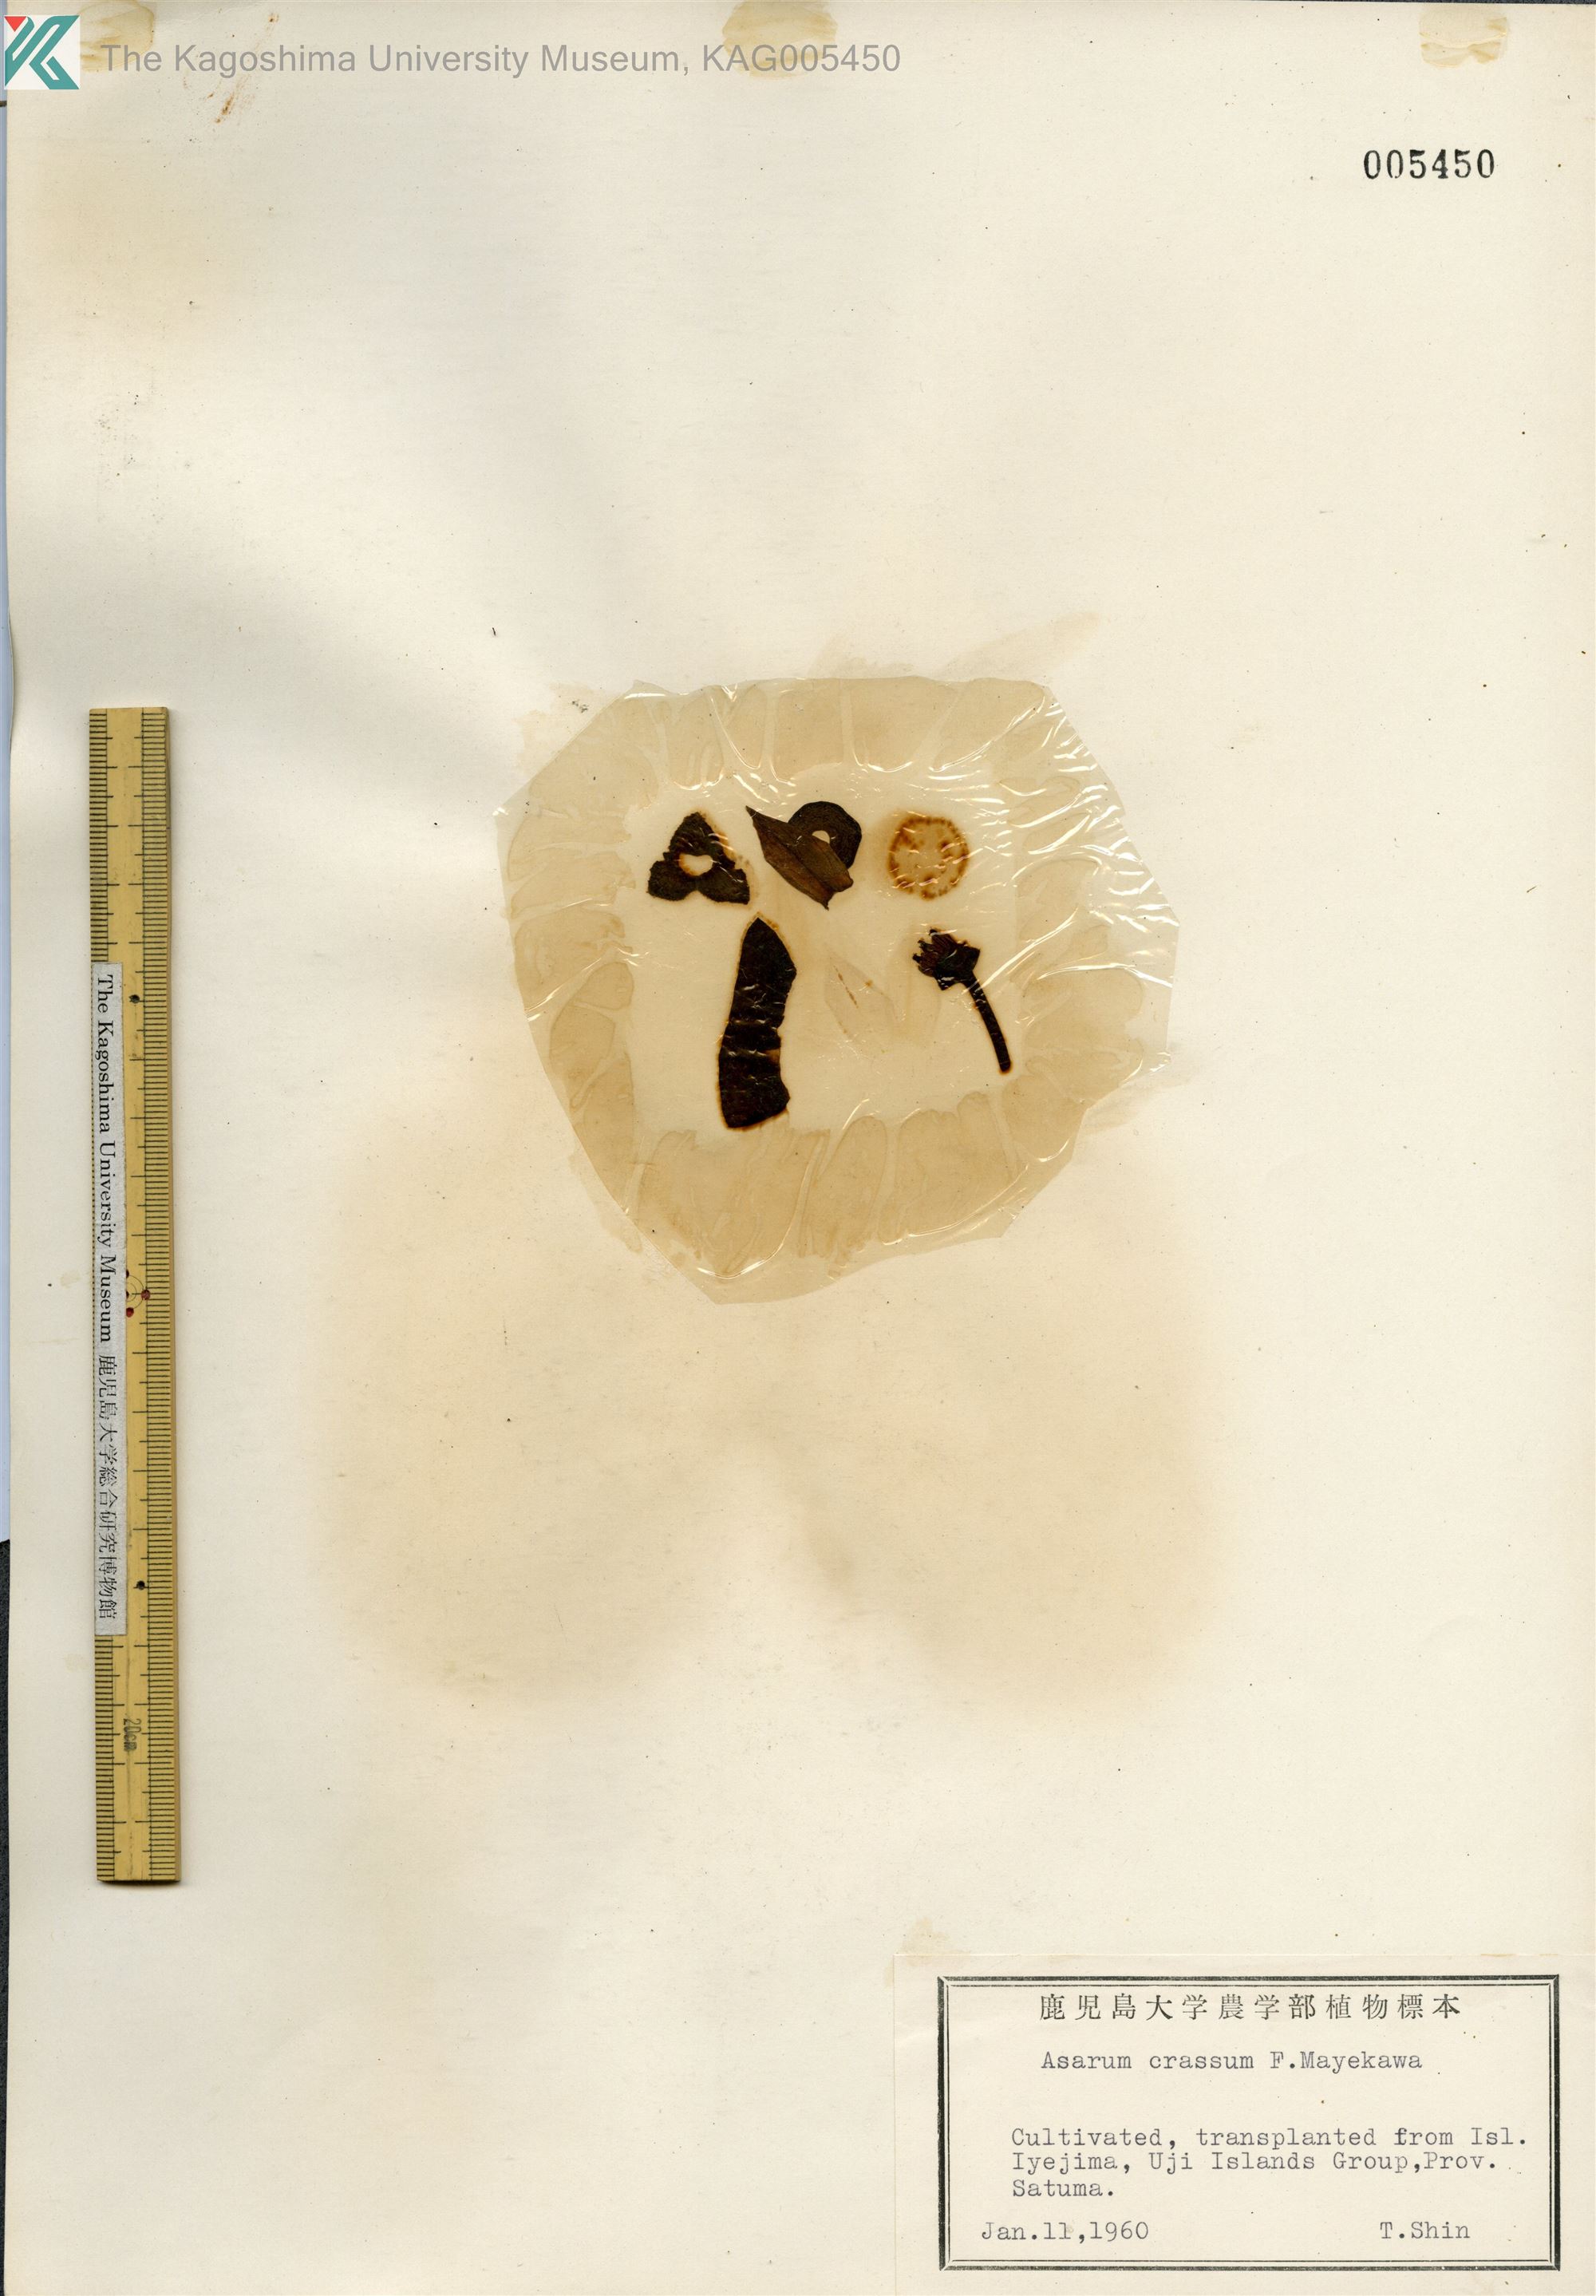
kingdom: Plantae
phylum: Tracheophyta
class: Magnoliopsida
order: Piperales
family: Aristolochiaceae
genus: Asarum
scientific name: Asarum crassum
